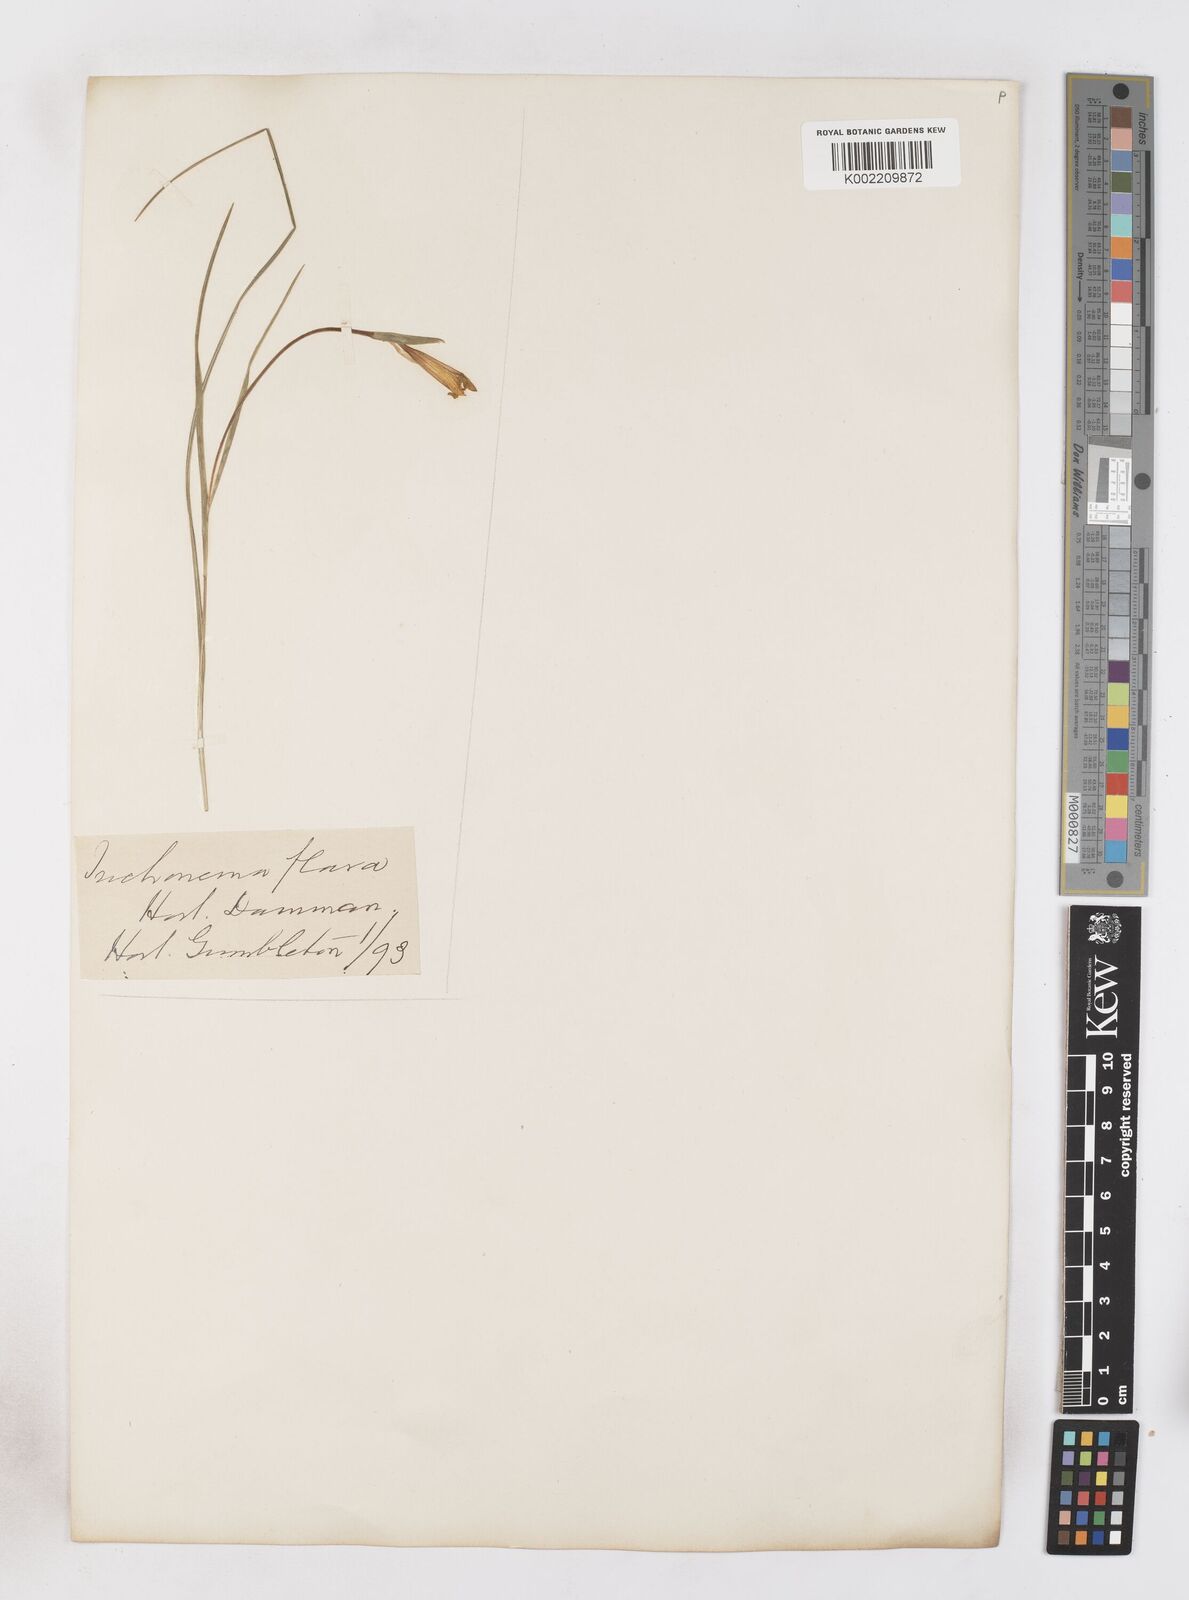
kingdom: Plantae
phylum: Tracheophyta
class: Liliopsida
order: Asparagales
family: Iridaceae
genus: Romulea
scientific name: Romulea bulbocodium
